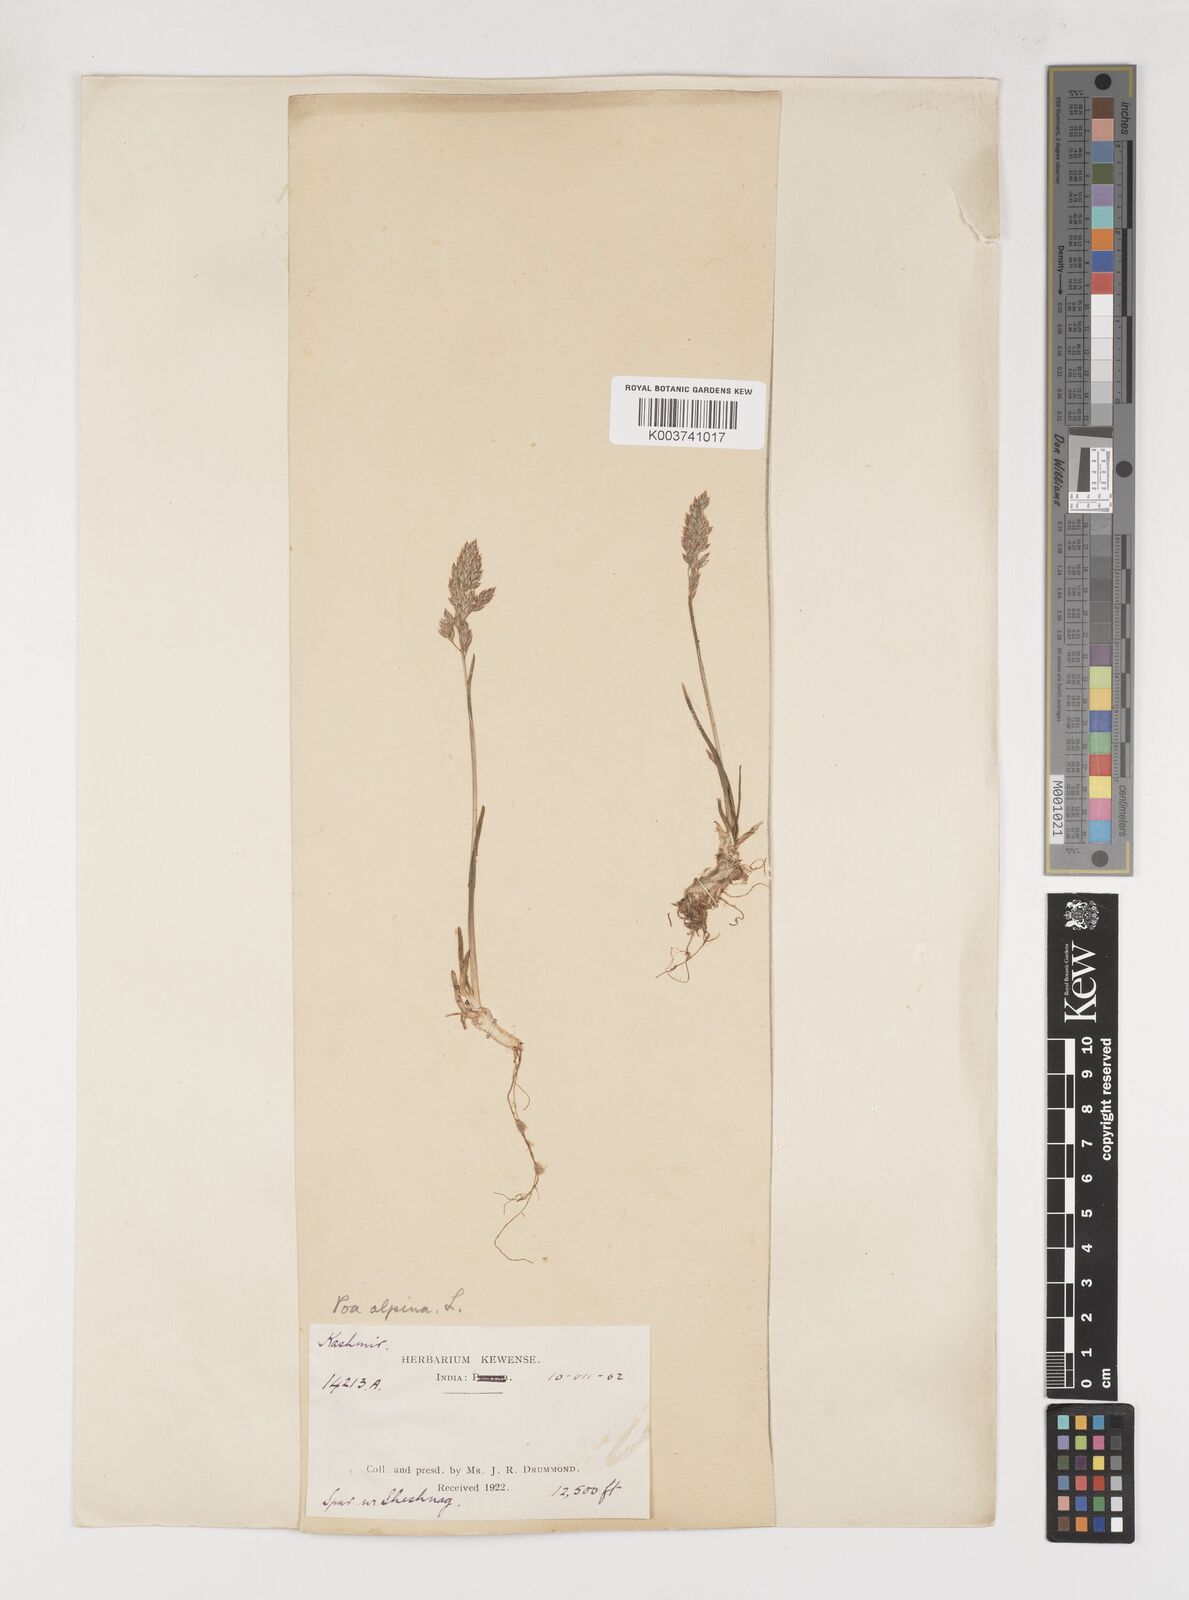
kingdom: Plantae
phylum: Tracheophyta
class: Liliopsida
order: Poales
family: Poaceae
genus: Poa
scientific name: Poa alpina
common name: Alpine bluegrass
